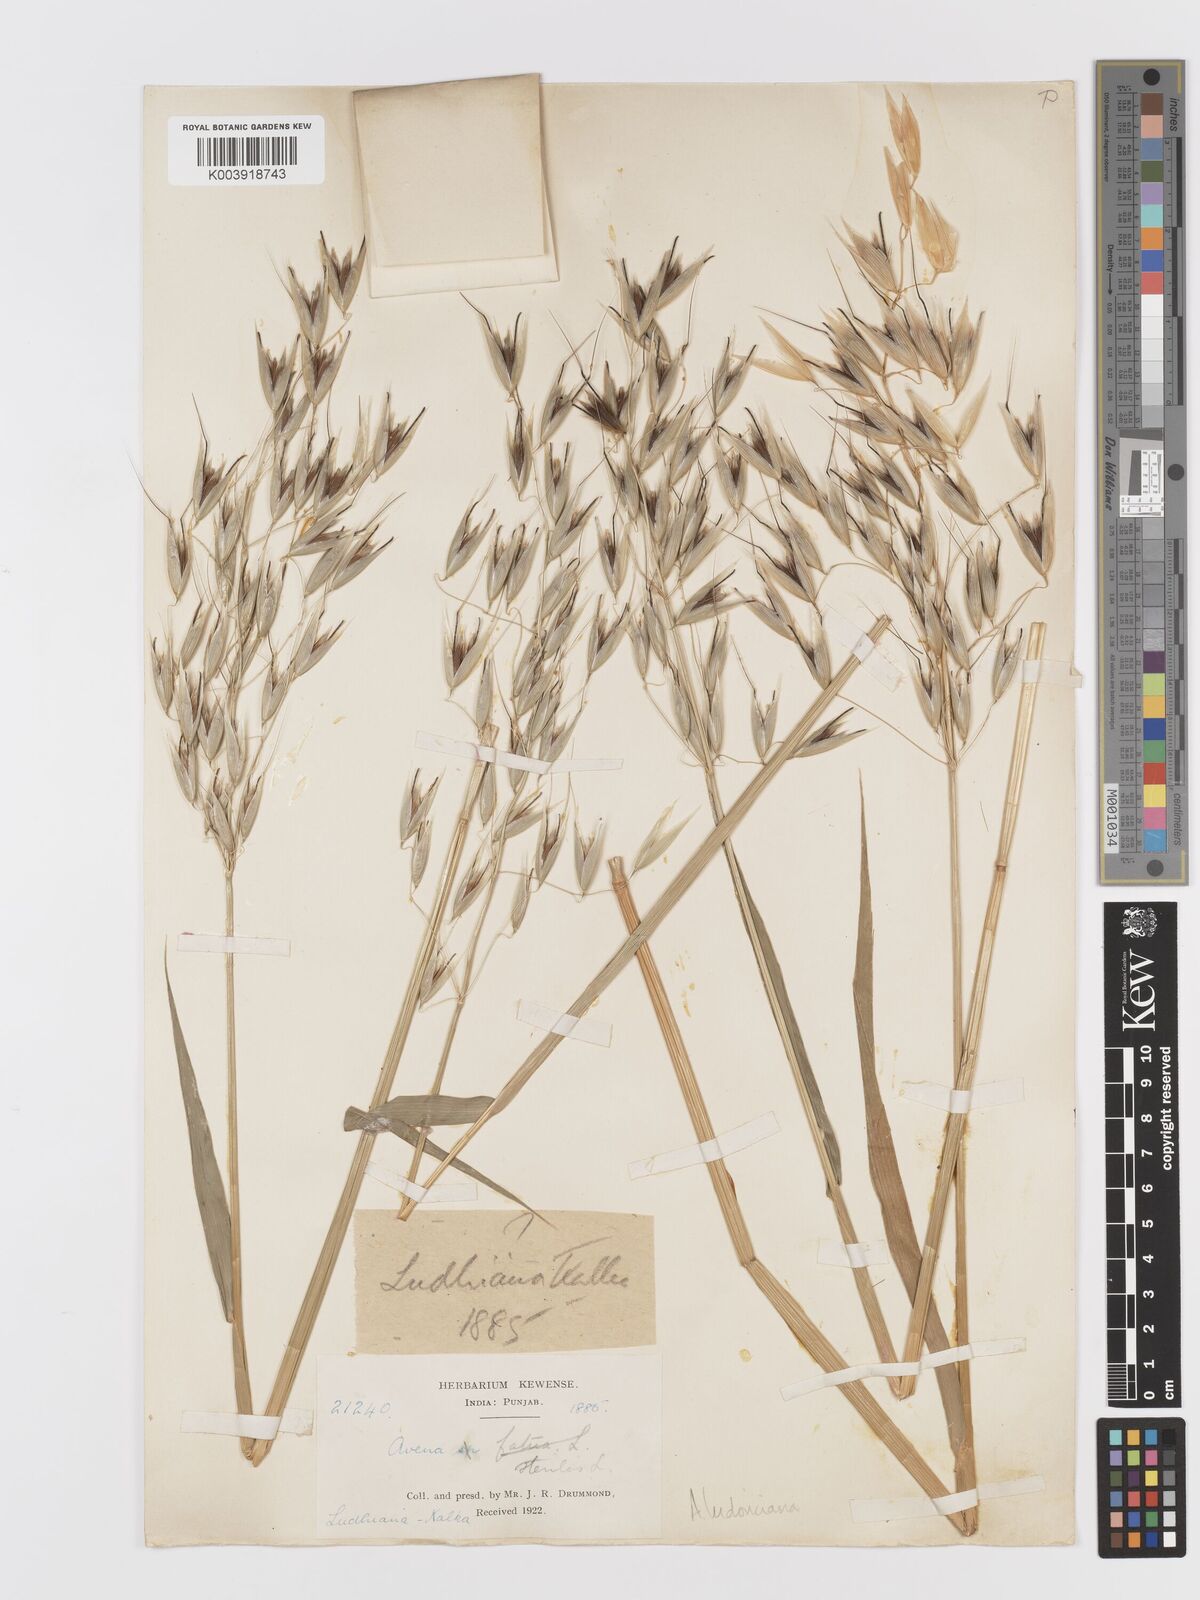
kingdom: Plantae
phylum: Tracheophyta
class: Liliopsida
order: Poales
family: Poaceae
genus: Avena
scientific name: Avena sterilis
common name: Animated oat
